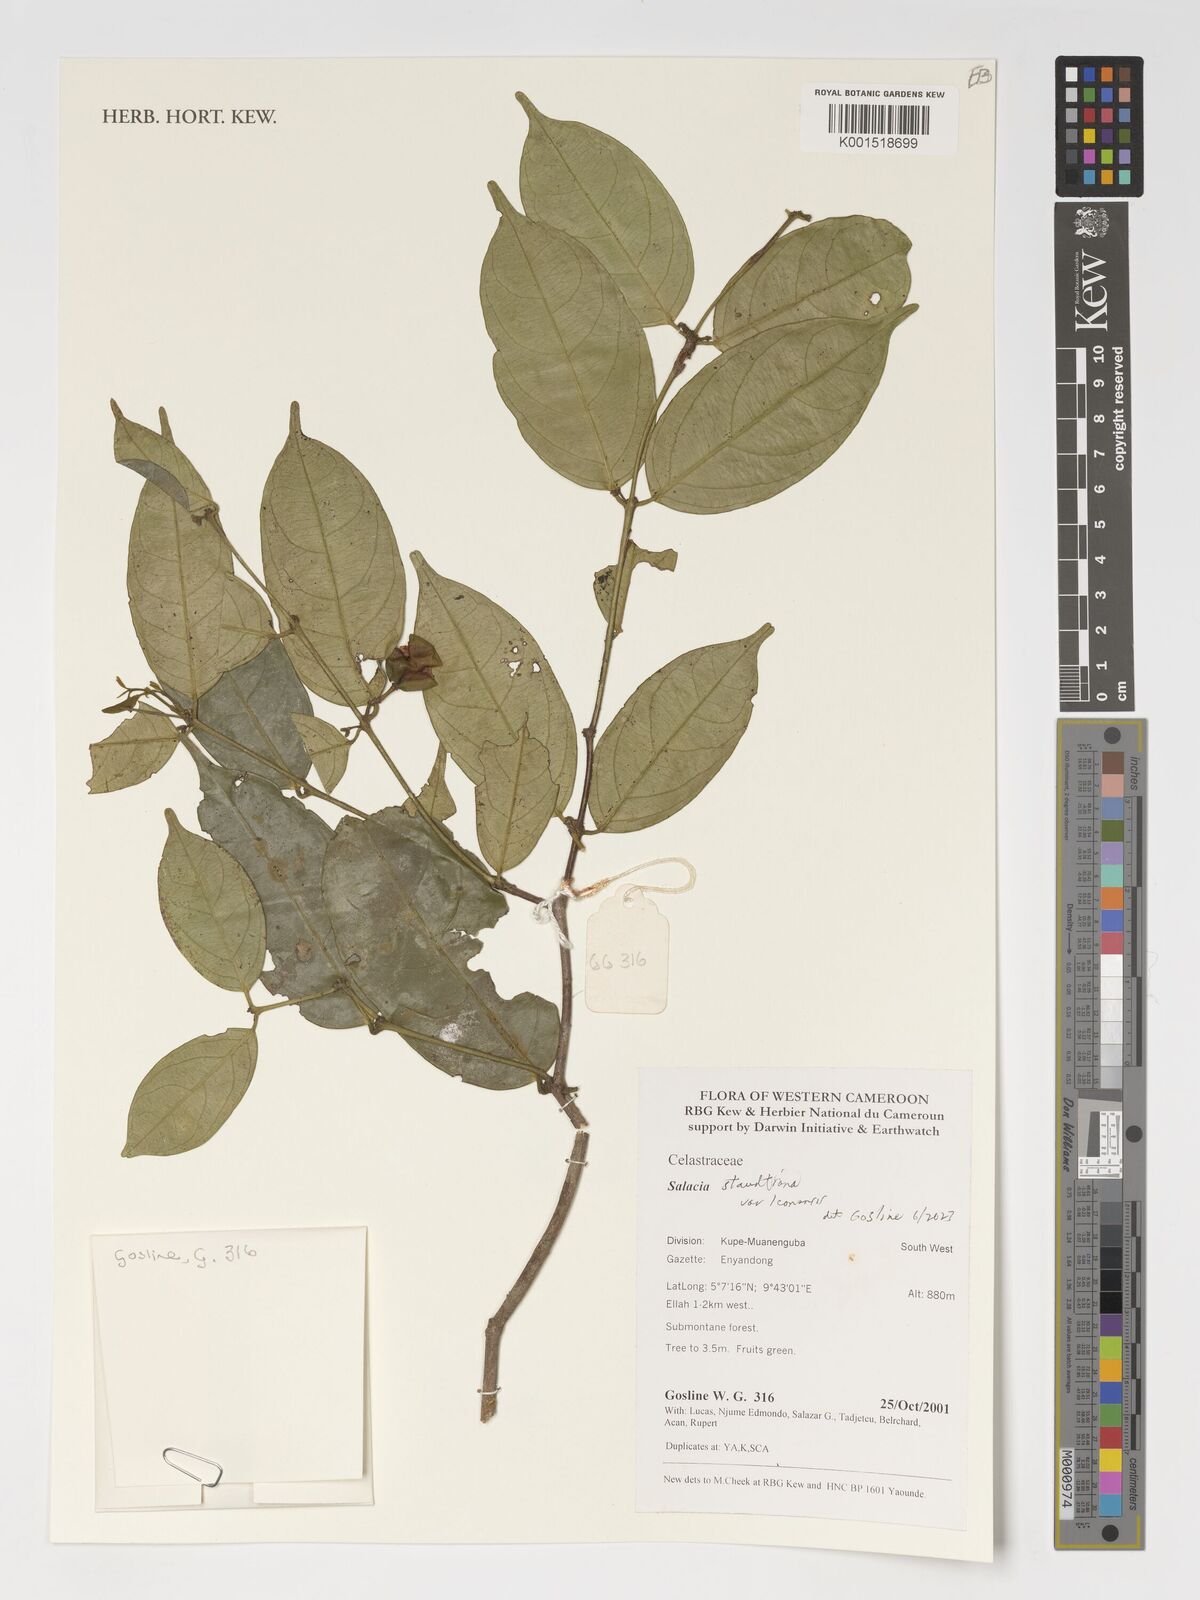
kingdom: Plantae
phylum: Tracheophyta
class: Magnoliopsida
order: Celastrales
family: Celastraceae
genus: Salacia
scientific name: Salacia staudtiana
